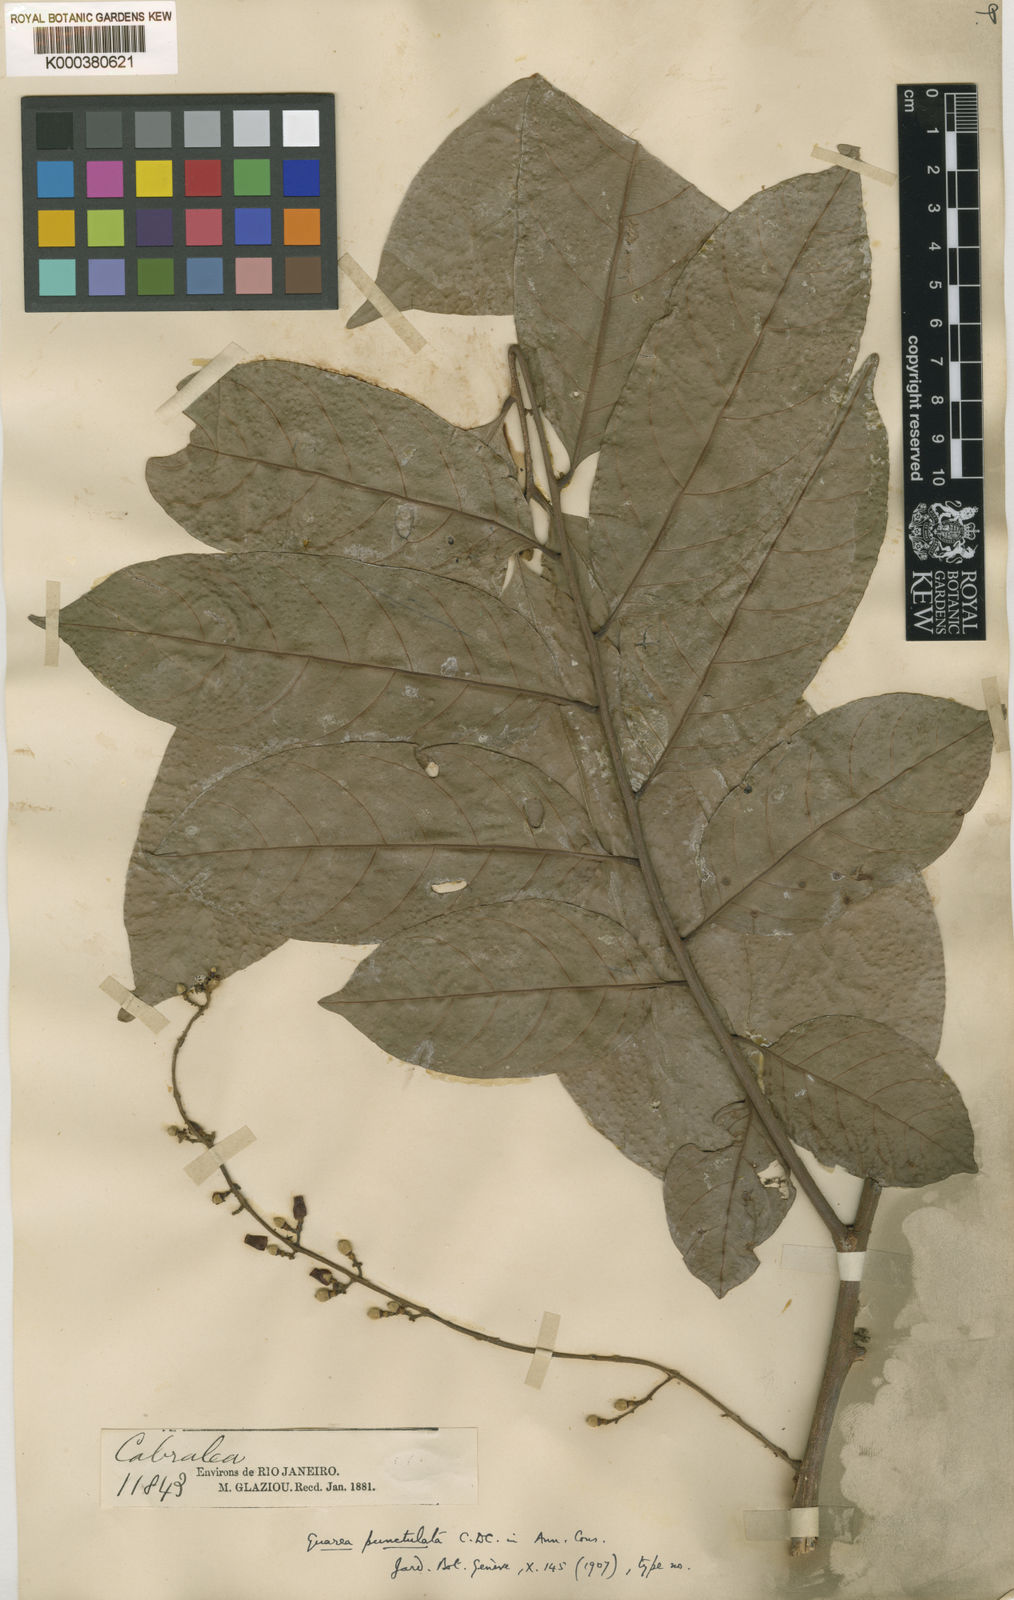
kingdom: Plantae
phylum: Tracheophyta
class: Magnoliopsida
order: Sapindales
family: Meliaceae
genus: Guarea
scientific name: Guarea macrophylla
